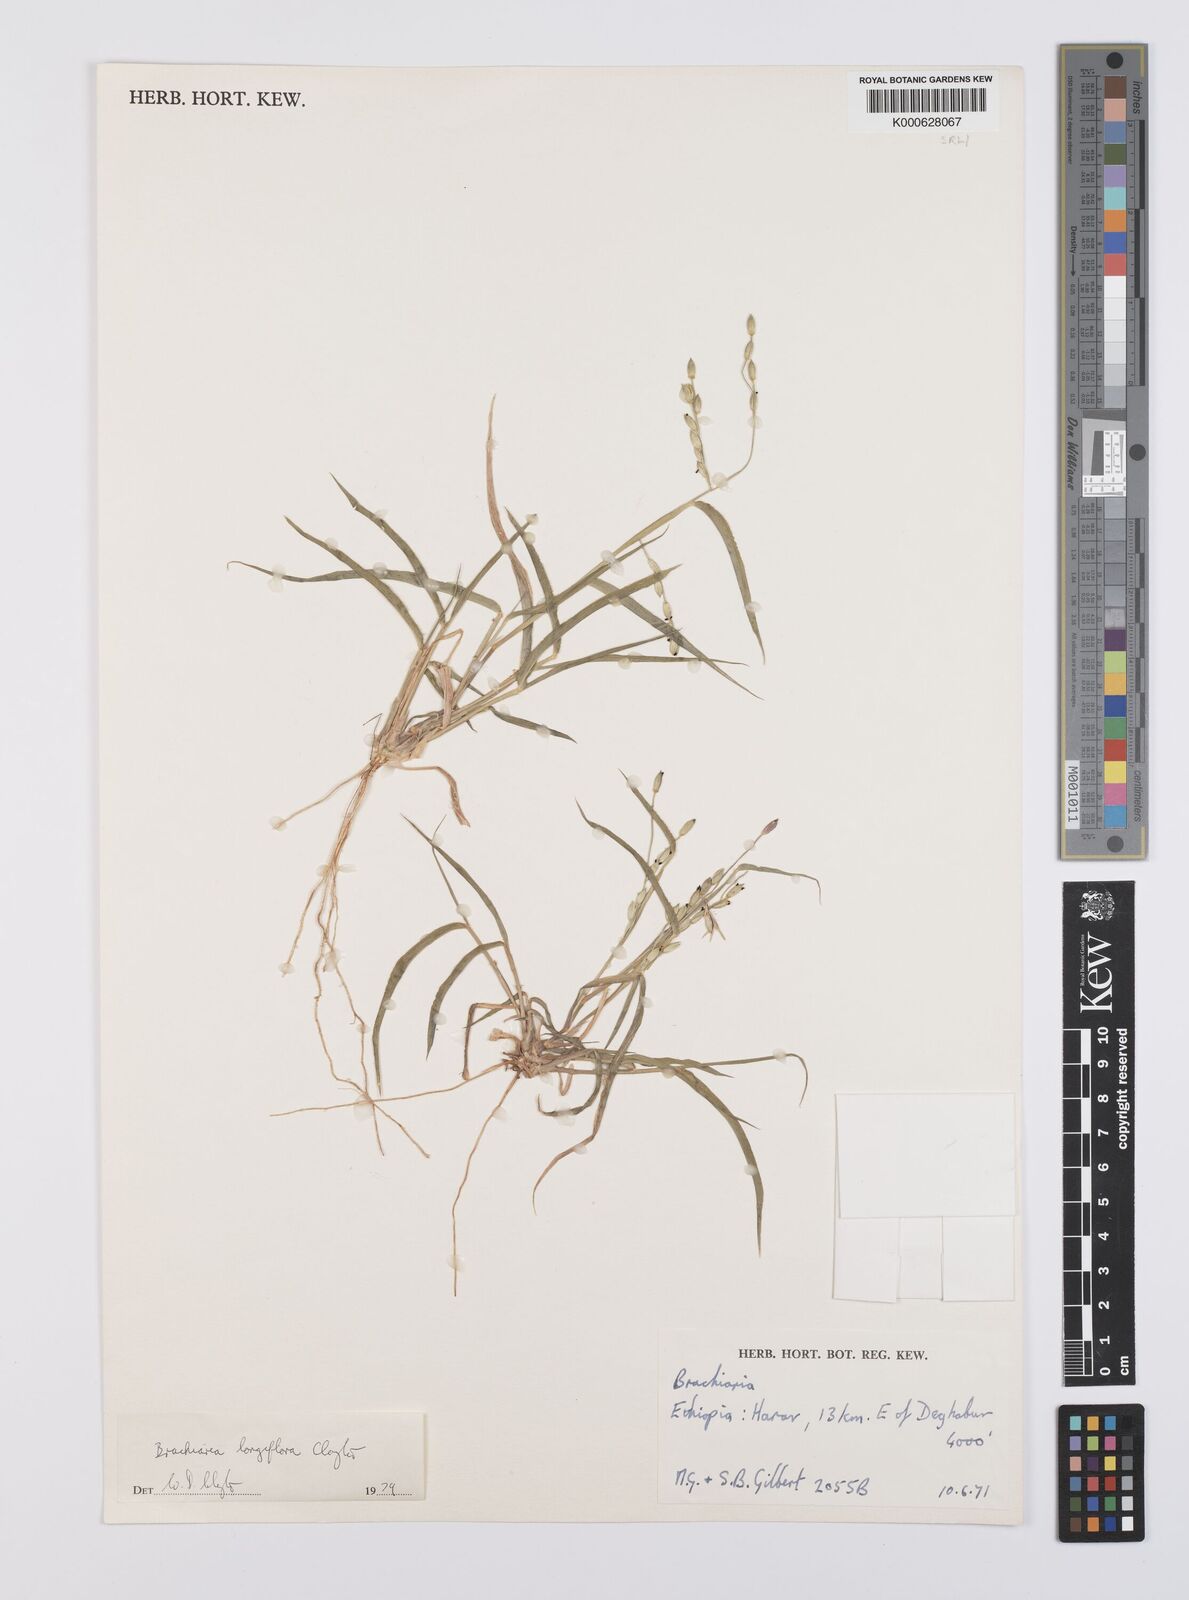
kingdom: Plantae
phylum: Tracheophyta
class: Liliopsida
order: Poales
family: Poaceae
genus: Urochloa
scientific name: Urochloa Brachiaria longiflora
